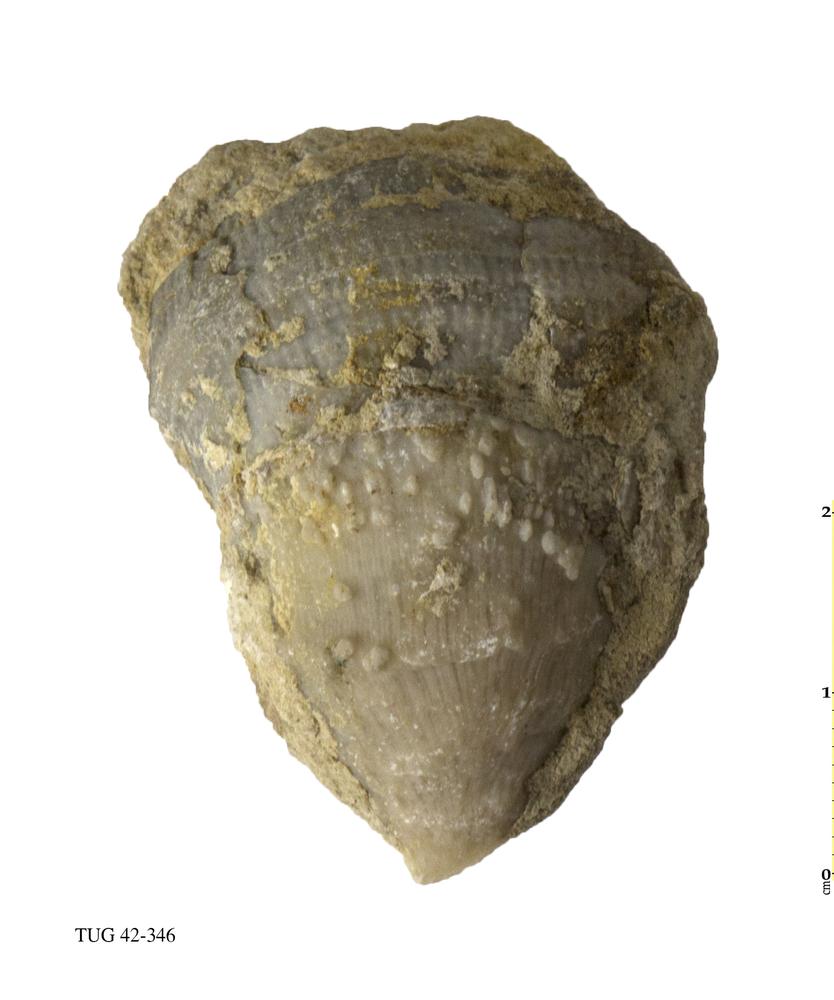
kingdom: Animalia
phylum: Cnidaria
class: Anthozoa
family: Streptelasmatidae
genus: Streptelasma
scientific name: Streptelasma corniculum
